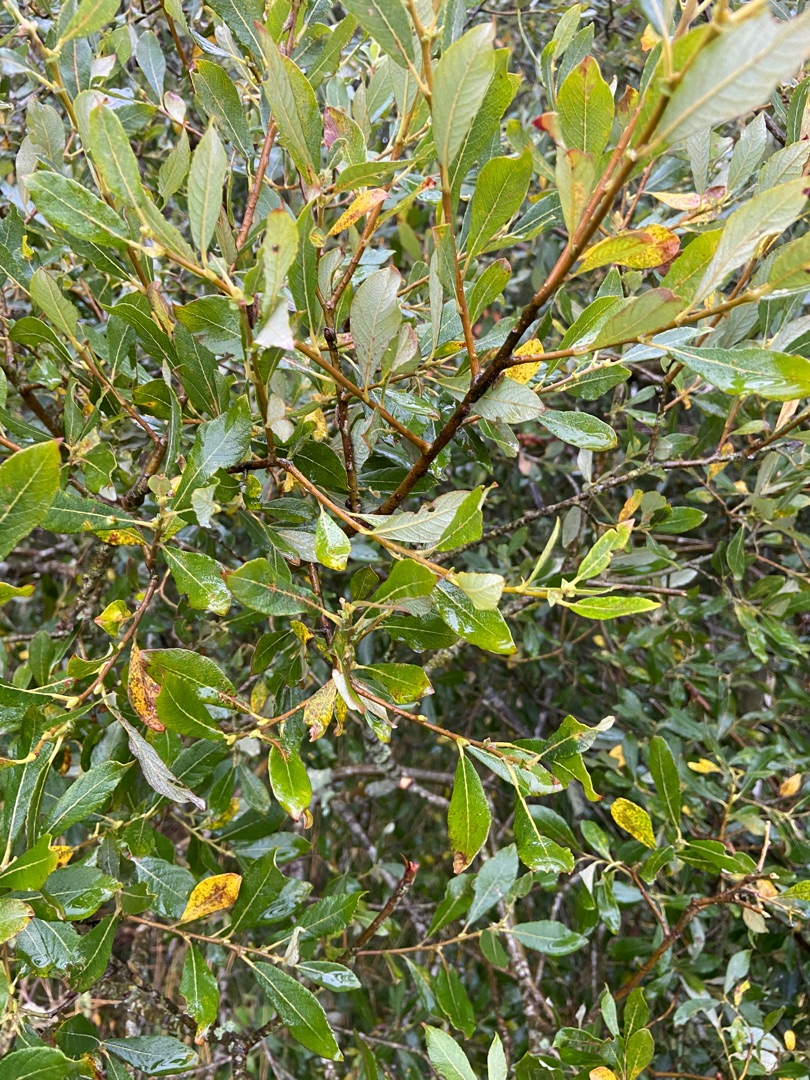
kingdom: Plantae
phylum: Tracheophyta
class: Magnoliopsida
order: Malpighiales
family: Salicaceae
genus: Salix
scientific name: Salix cinerea
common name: Grå-pil
